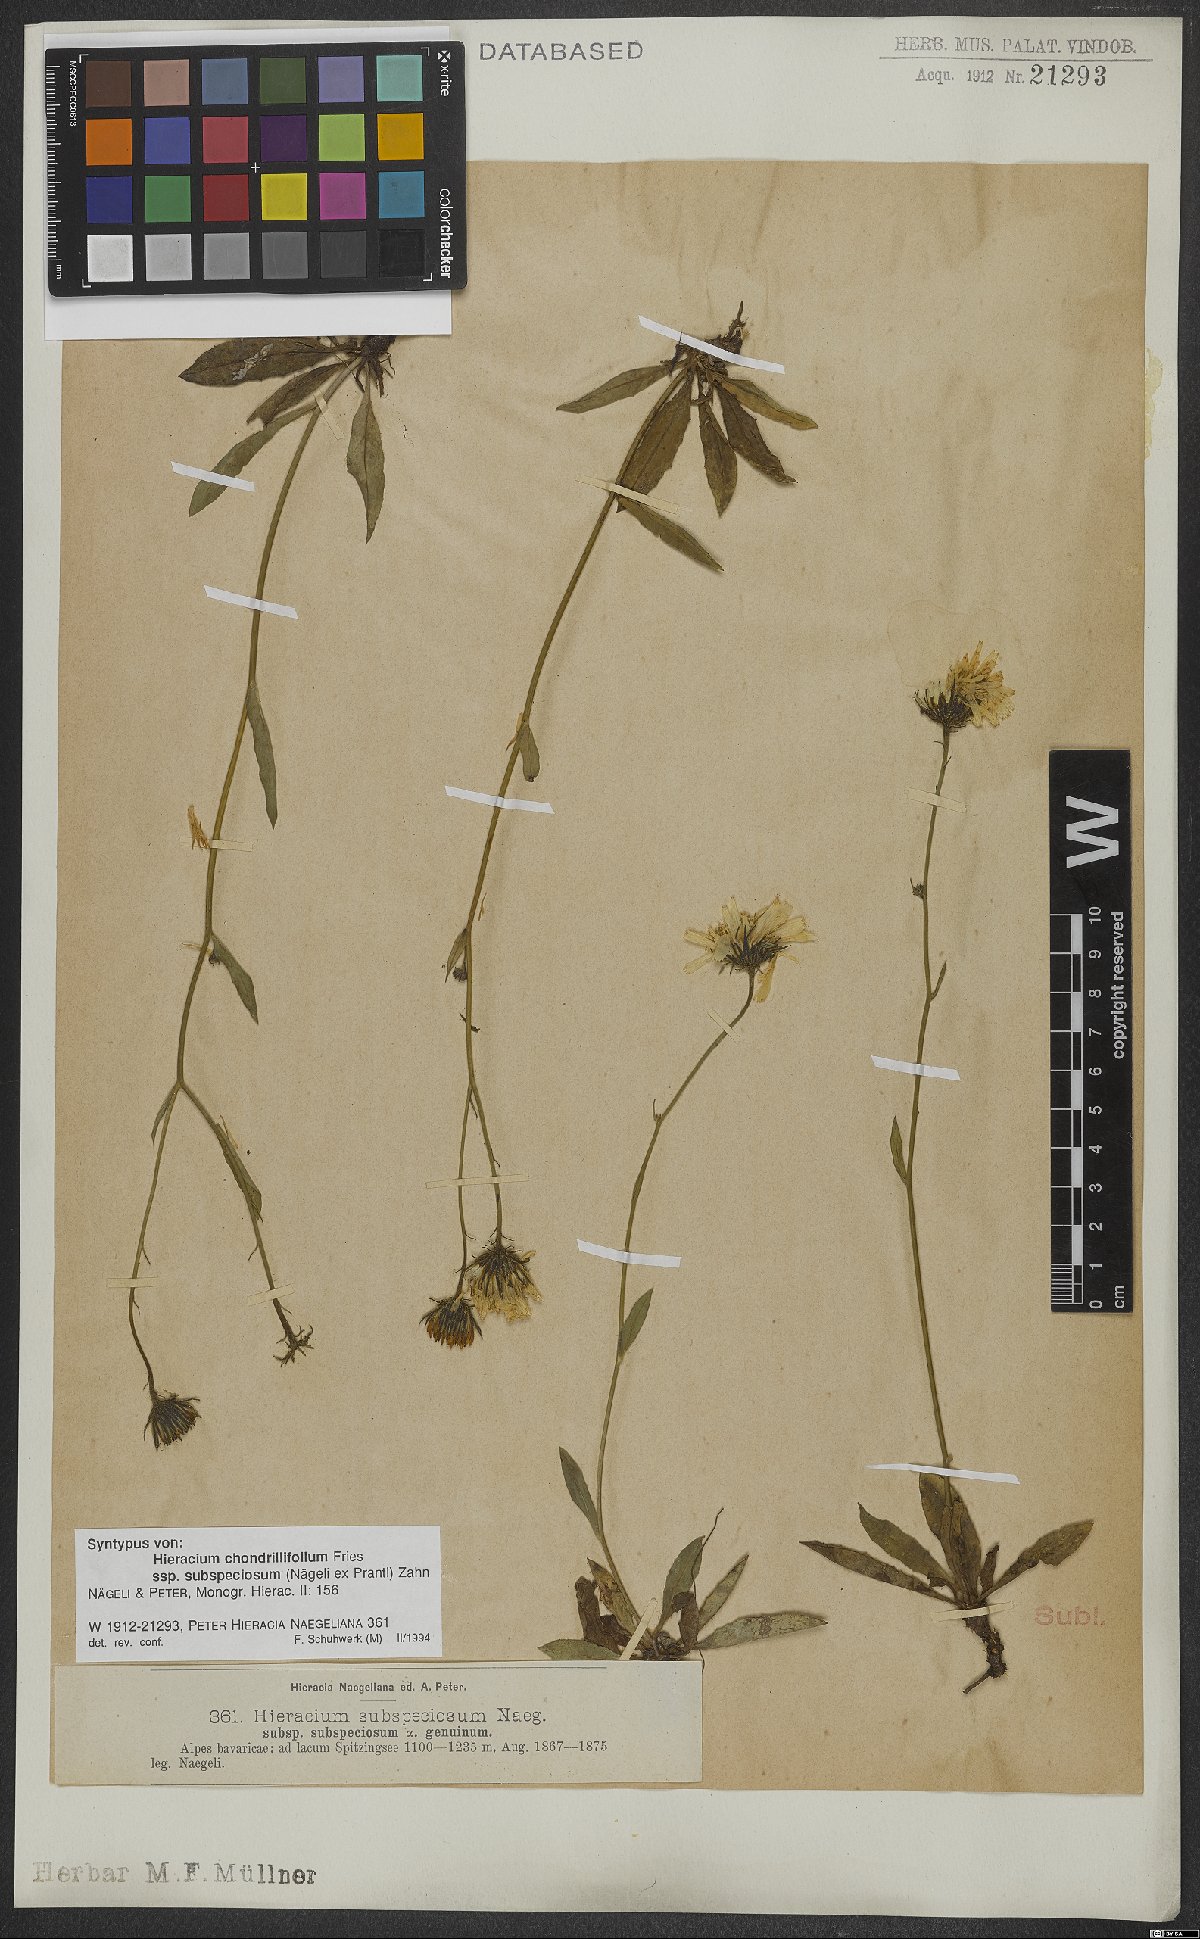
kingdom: Plantae
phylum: Tracheophyta
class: Magnoliopsida
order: Asterales
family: Asteraceae
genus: Hieracium
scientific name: Hieracium subspeciosum
